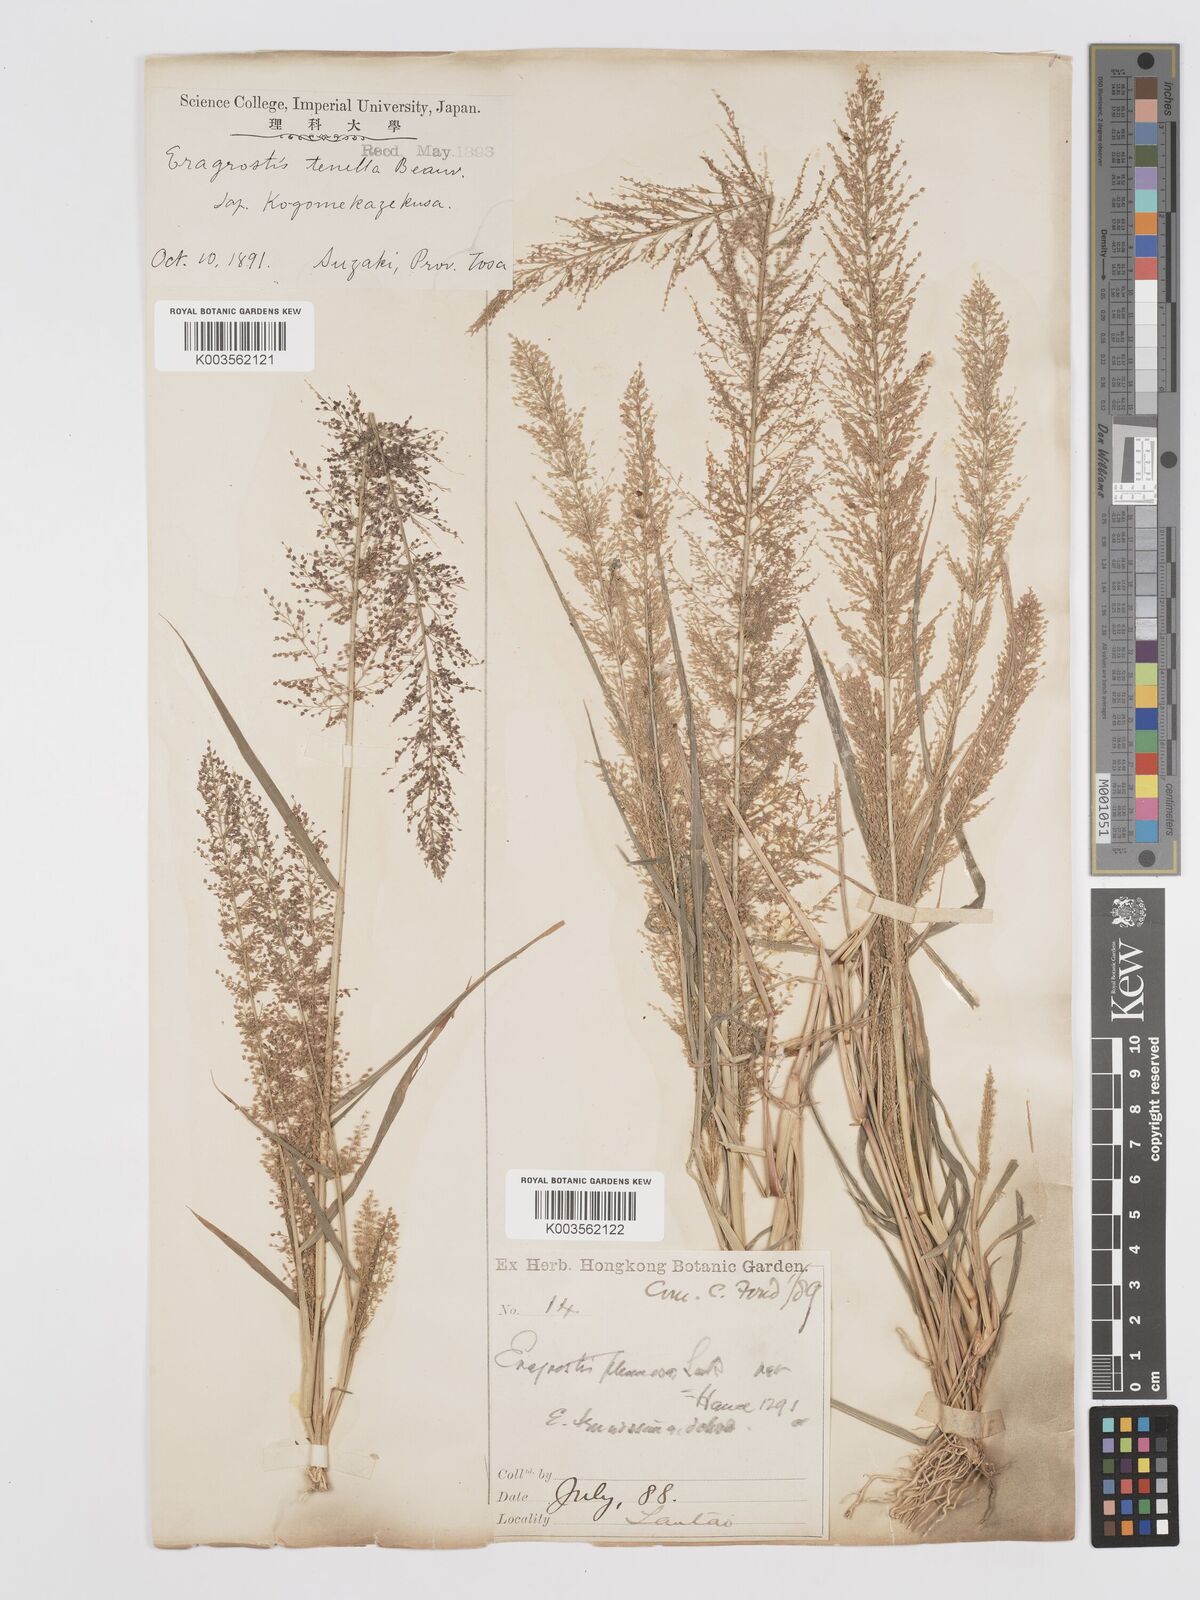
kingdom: Plantae
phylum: Tracheophyta
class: Liliopsida
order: Poales
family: Poaceae
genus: Eragrostis
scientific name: Eragrostis japonica
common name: Pond lovegrass
